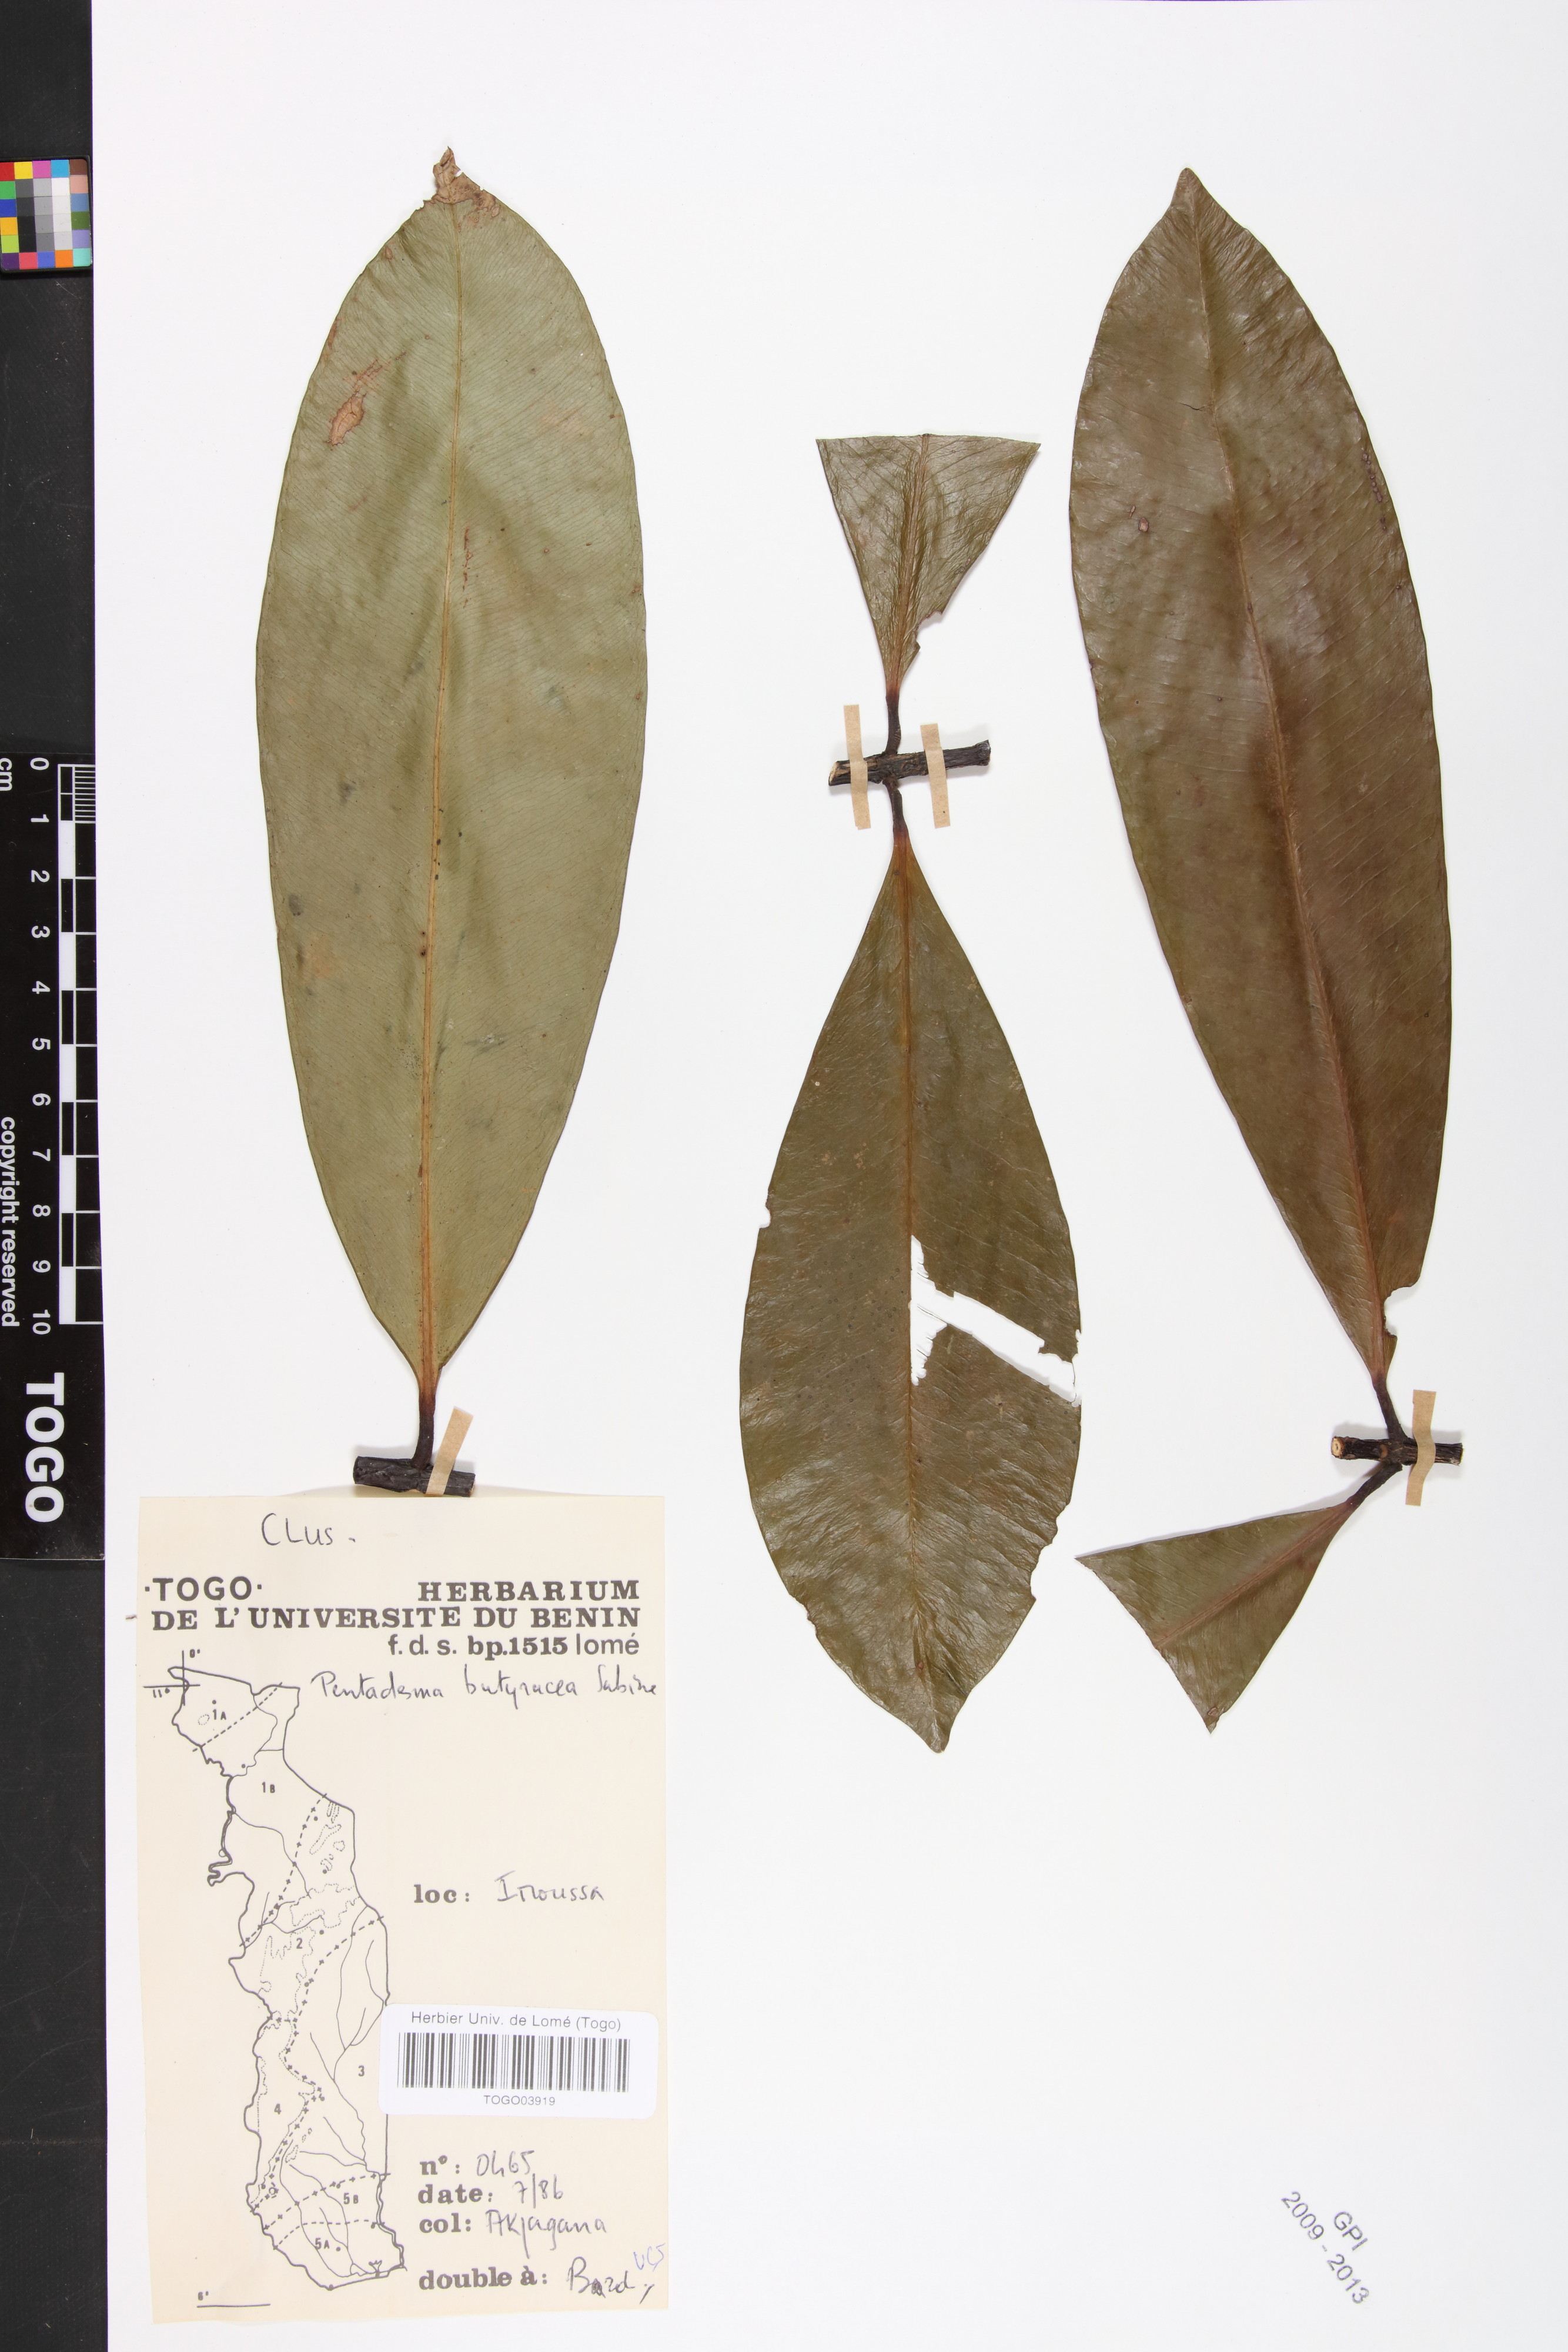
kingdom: Plantae
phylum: Tracheophyta
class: Magnoliopsida
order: Malpighiales
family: Clusiaceae
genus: Pentadesma
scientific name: Pentadesma butyracea
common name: Buttertree
